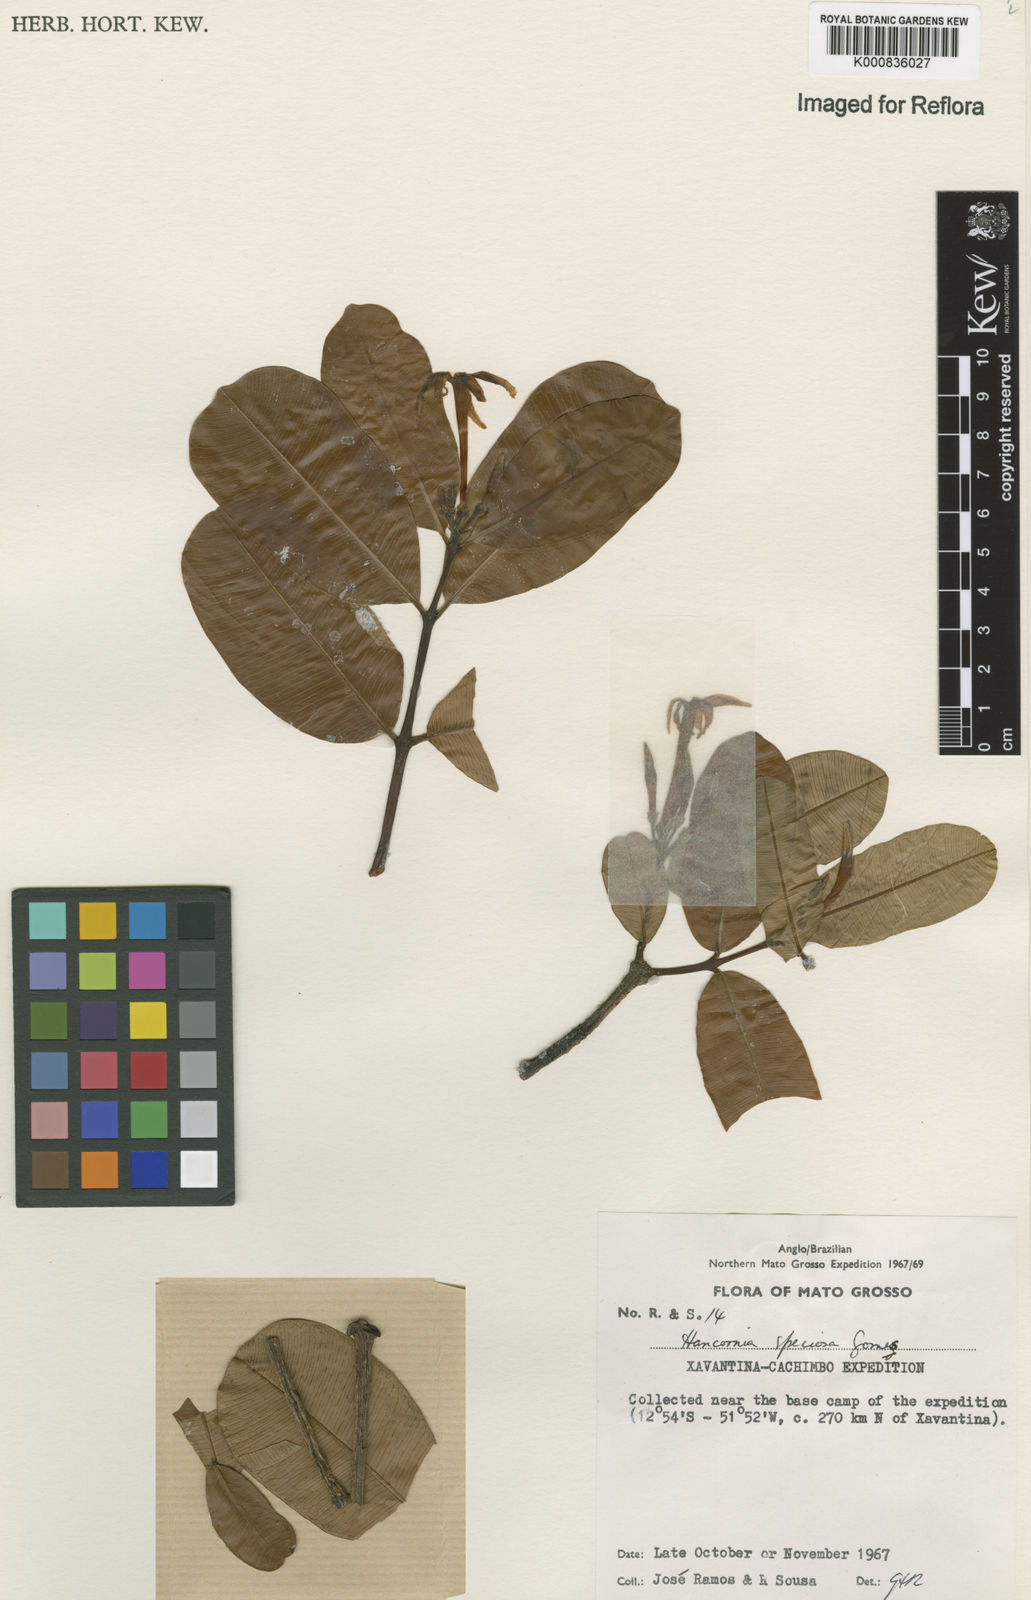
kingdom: Plantae
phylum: Tracheophyta
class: Magnoliopsida
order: Gentianales
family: Apocynaceae
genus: Hancornia
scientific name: Hancornia speciosa
